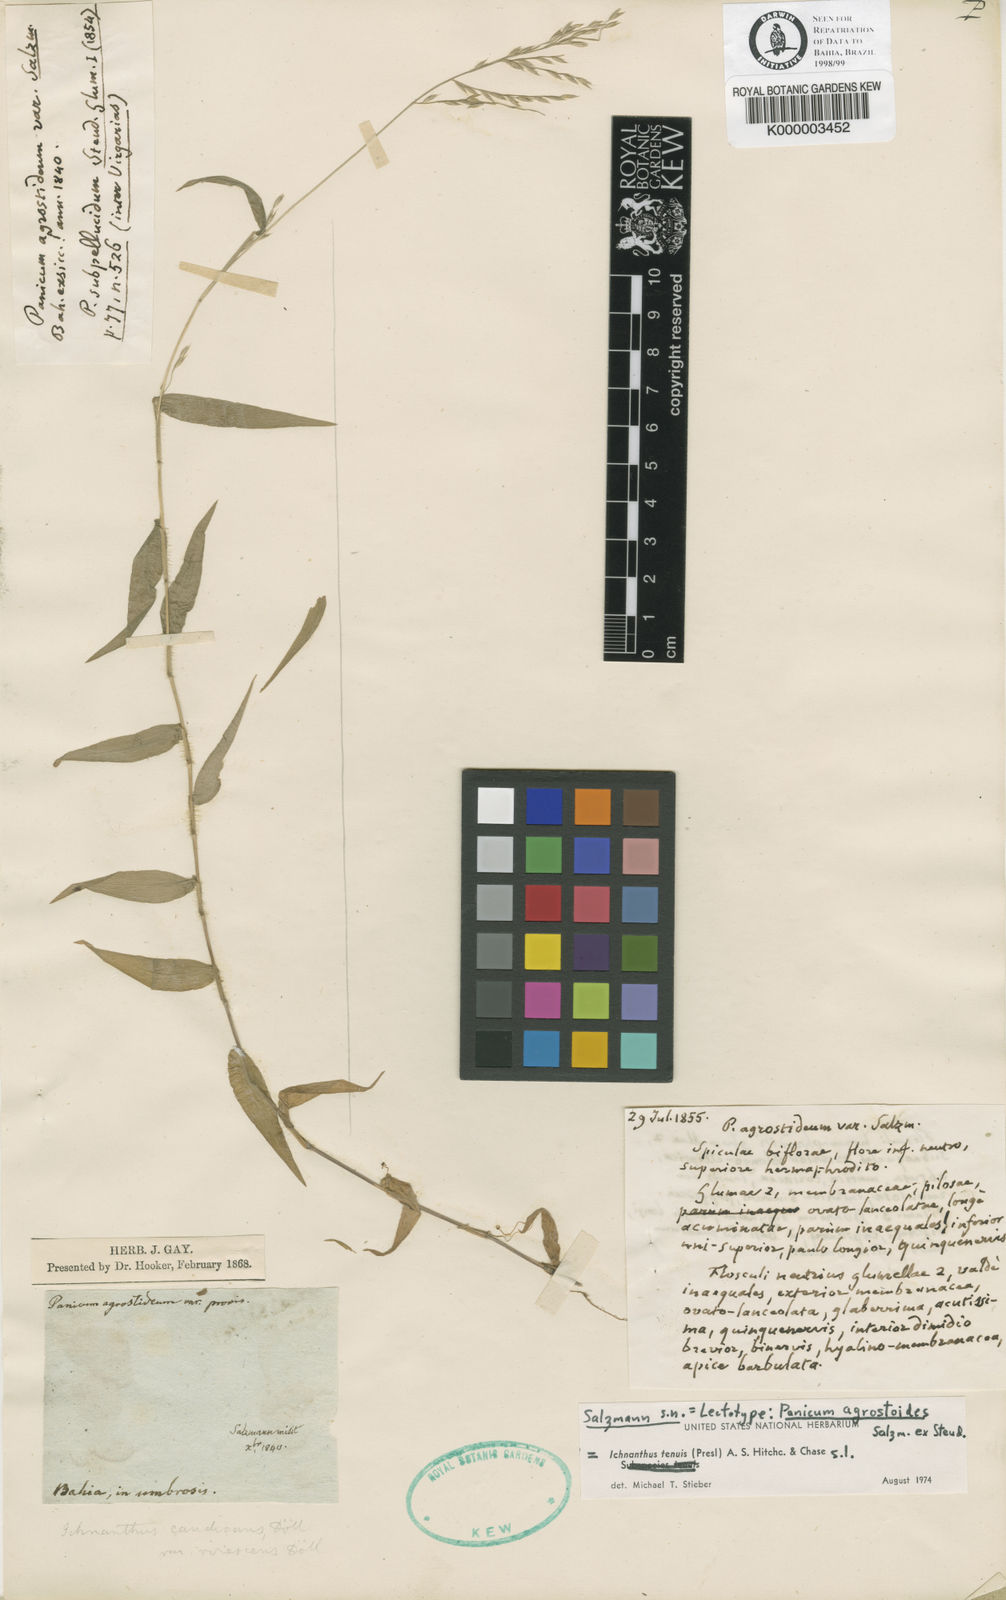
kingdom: Plantae
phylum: Tracheophyta
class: Liliopsida
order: Poales
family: Poaceae
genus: Ichnanthus
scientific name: Ichnanthus tenuis
